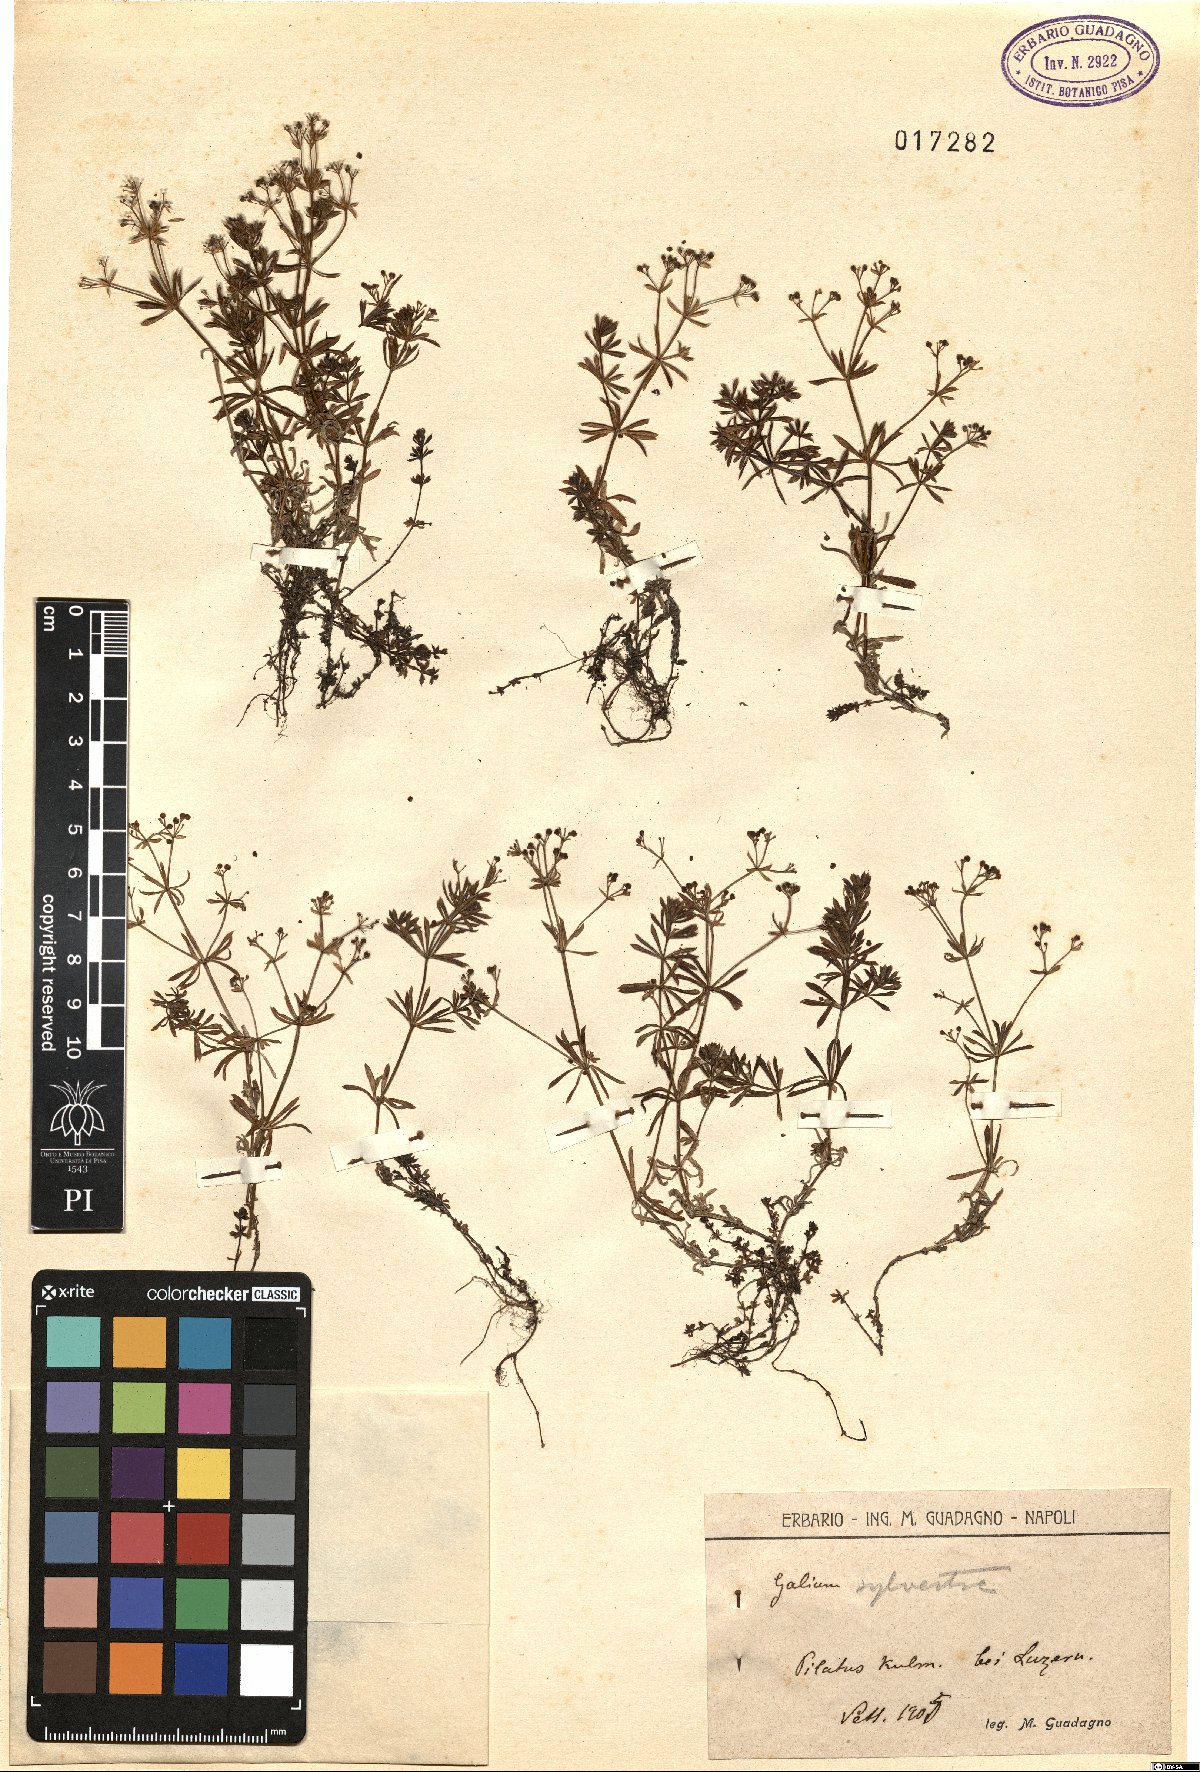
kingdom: Plantae
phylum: Tracheophyta
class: Magnoliopsida
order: Gentianales
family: Rubiaceae
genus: Galium
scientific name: Galium album
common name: White bedstraw
